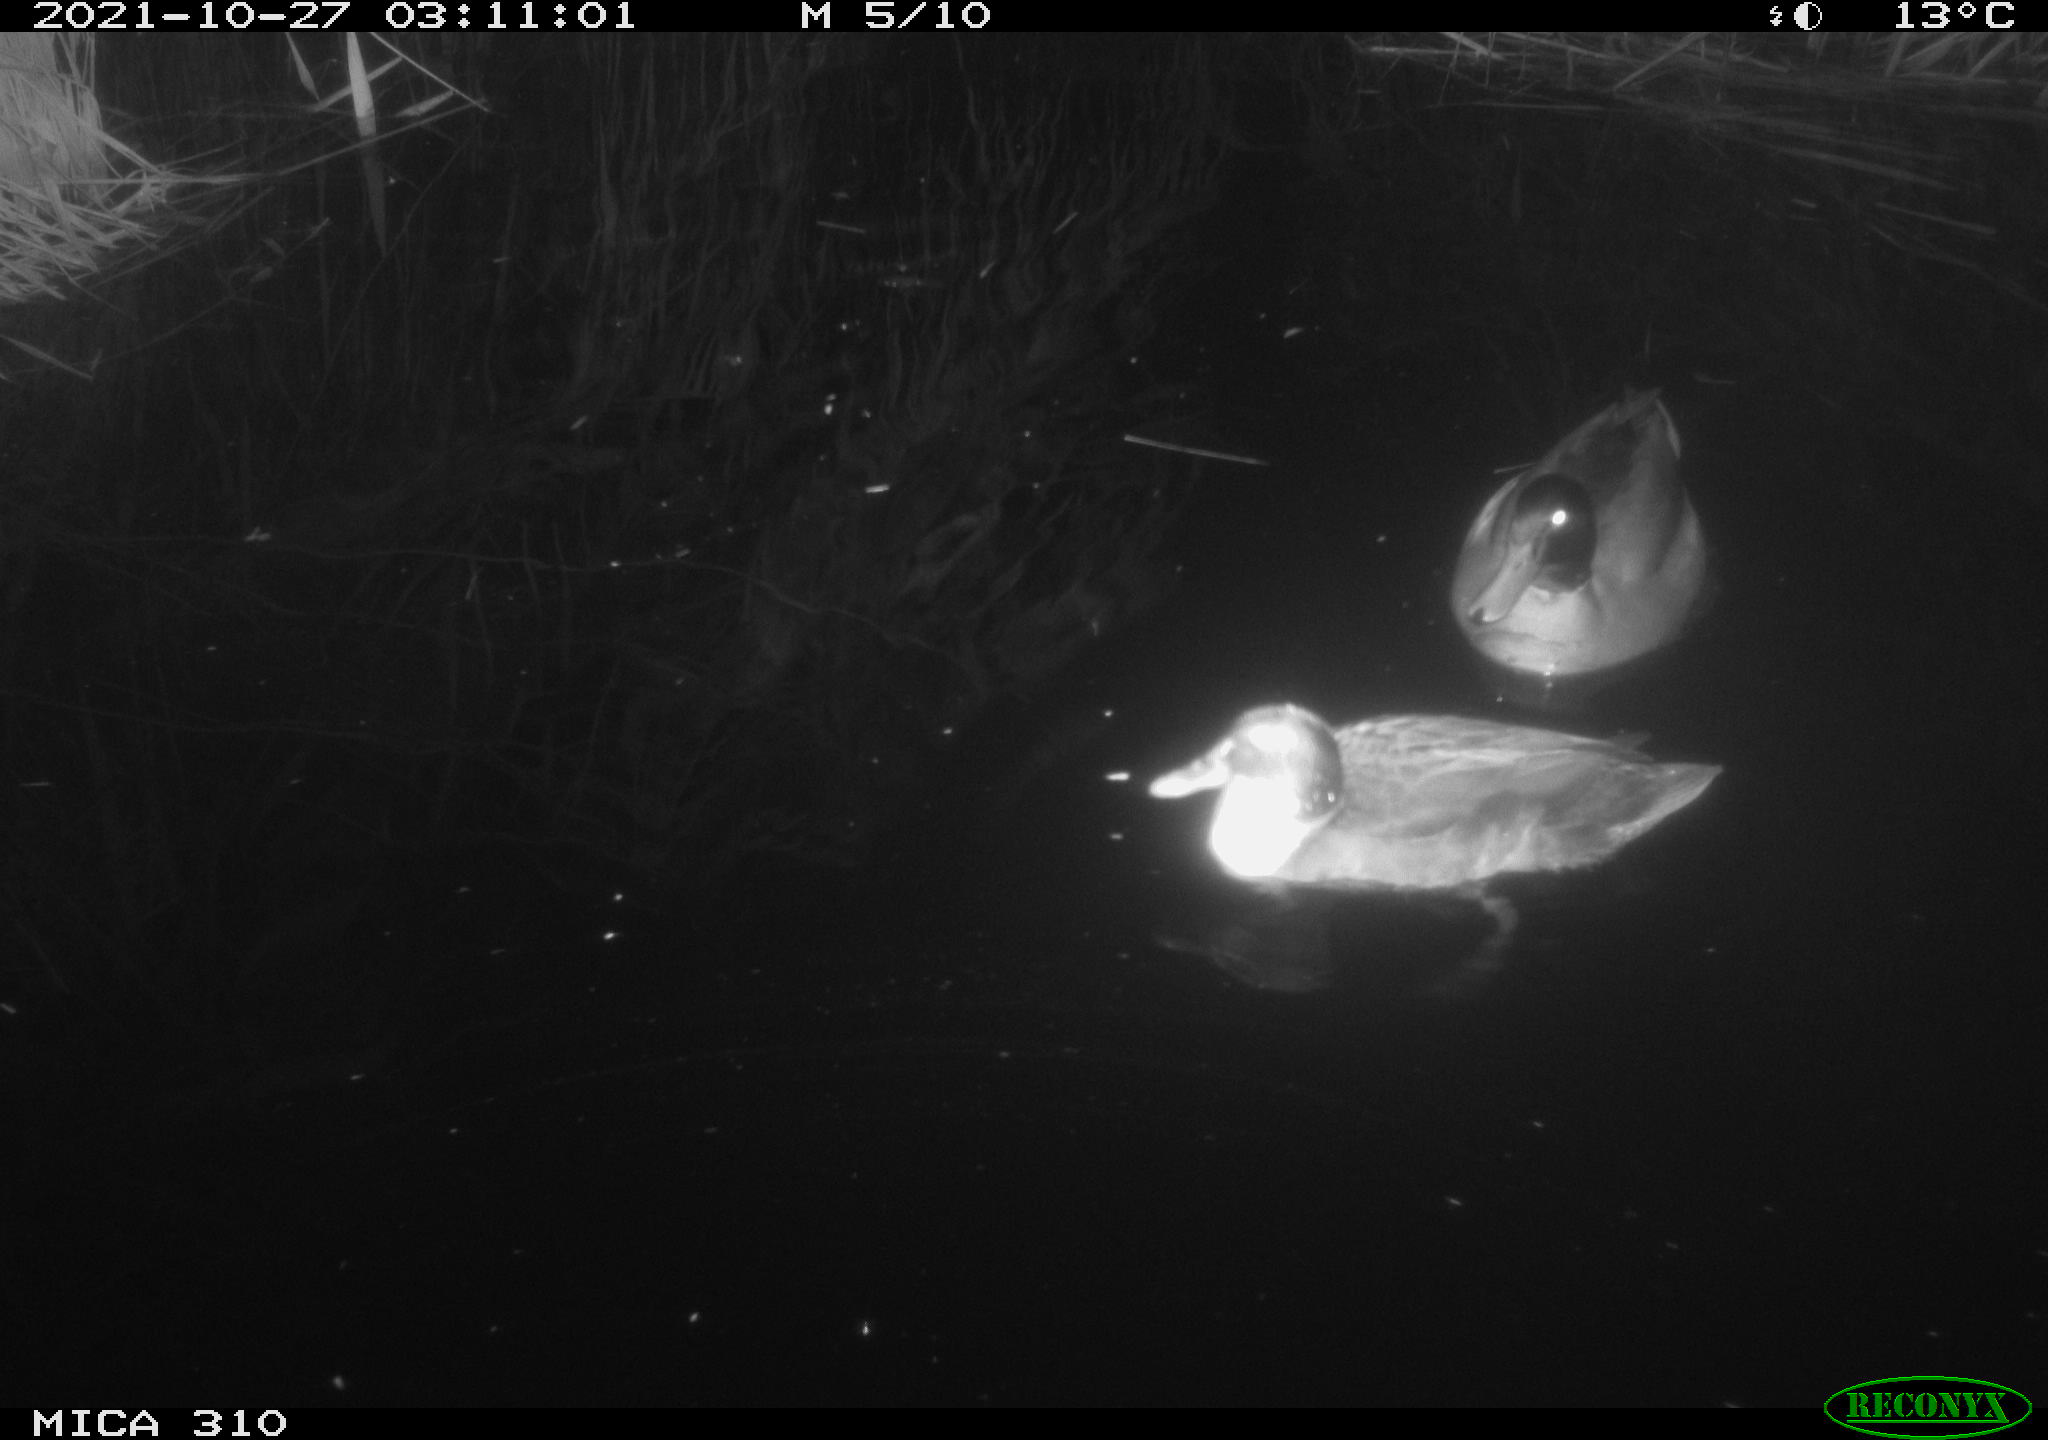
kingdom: Animalia
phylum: Chordata
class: Aves
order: Anseriformes
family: Anatidae
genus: Anas
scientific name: Anas platyrhynchos
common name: Mallard
